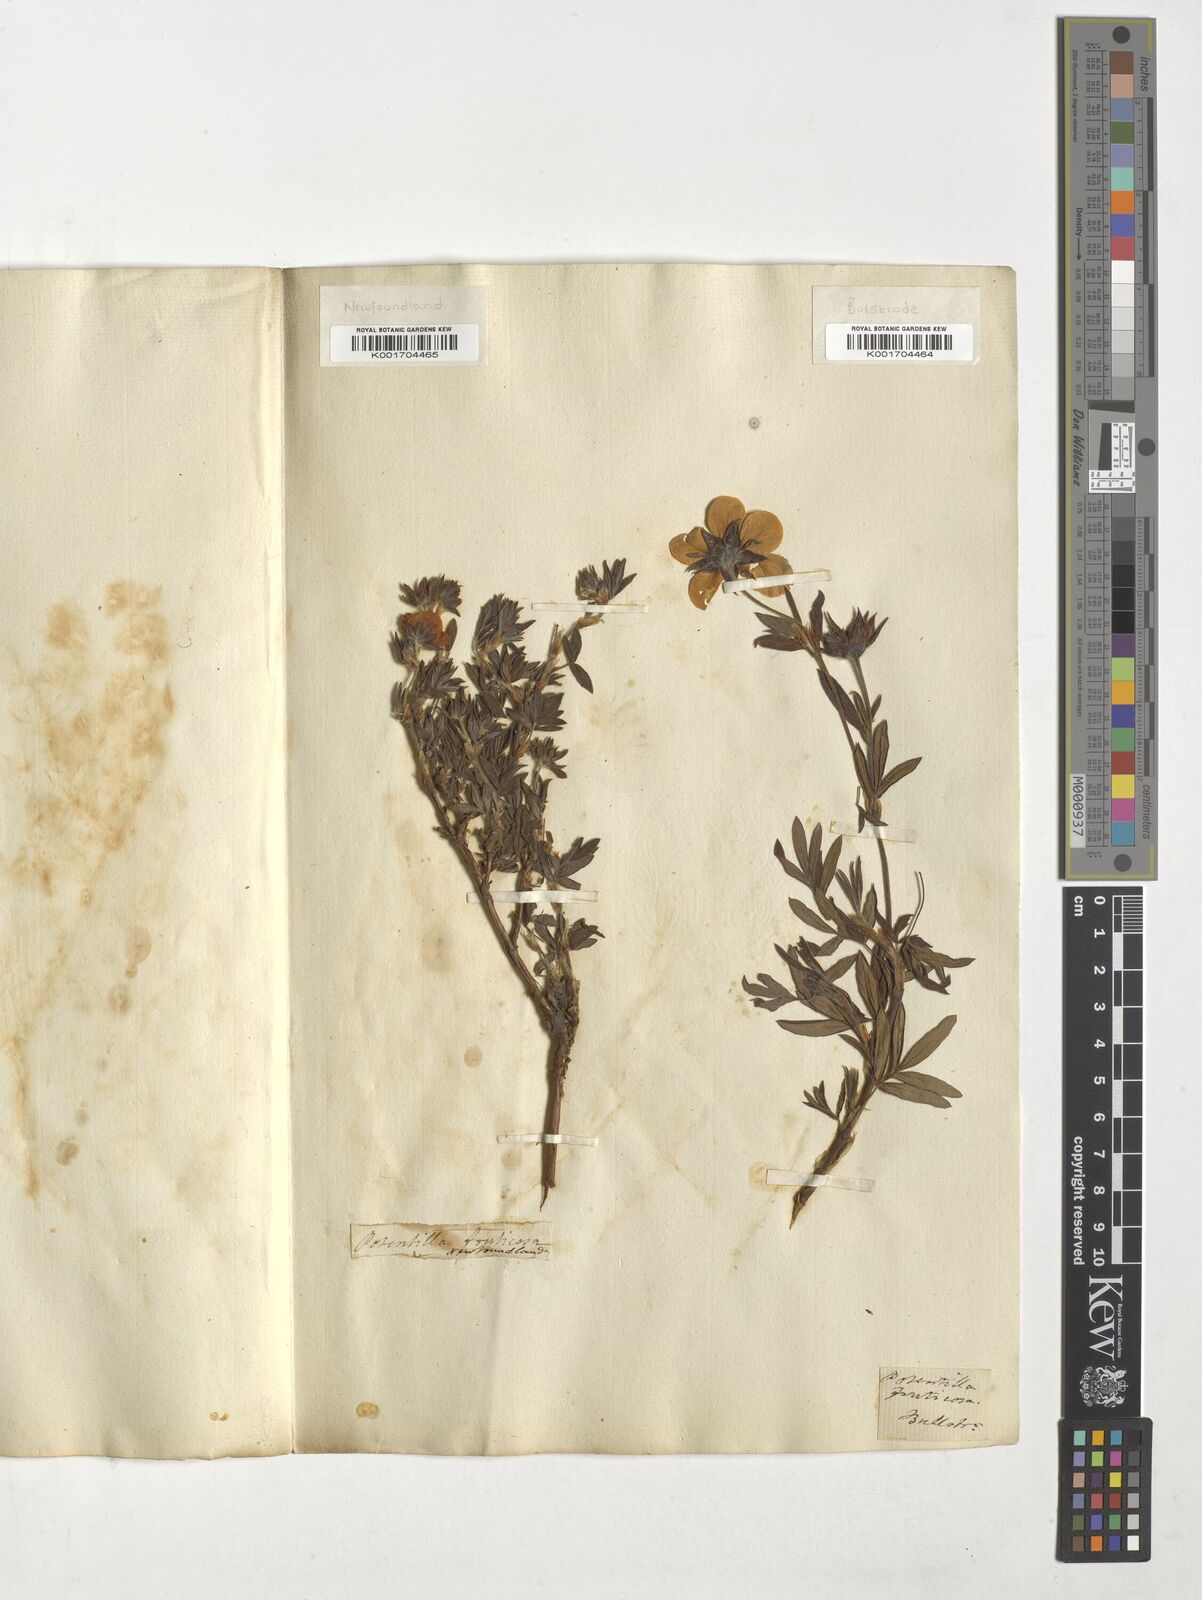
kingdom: Plantae
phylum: Tracheophyta
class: Magnoliopsida
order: Rosales
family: Rosaceae
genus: Potentilla
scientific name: Potentilla fructicosa
